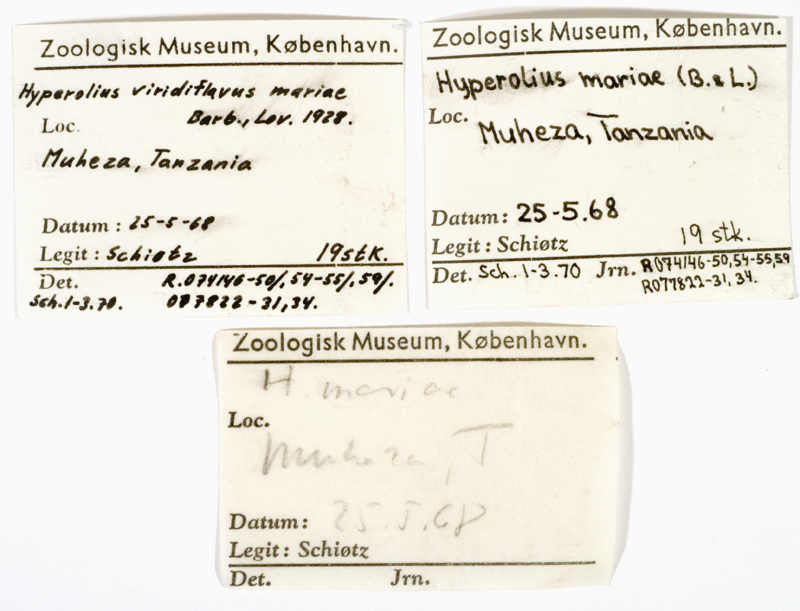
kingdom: Animalia
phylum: Chordata
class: Amphibia
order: Anura
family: Hyperoliidae
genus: Hyperolius
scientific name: Hyperolius mariae
